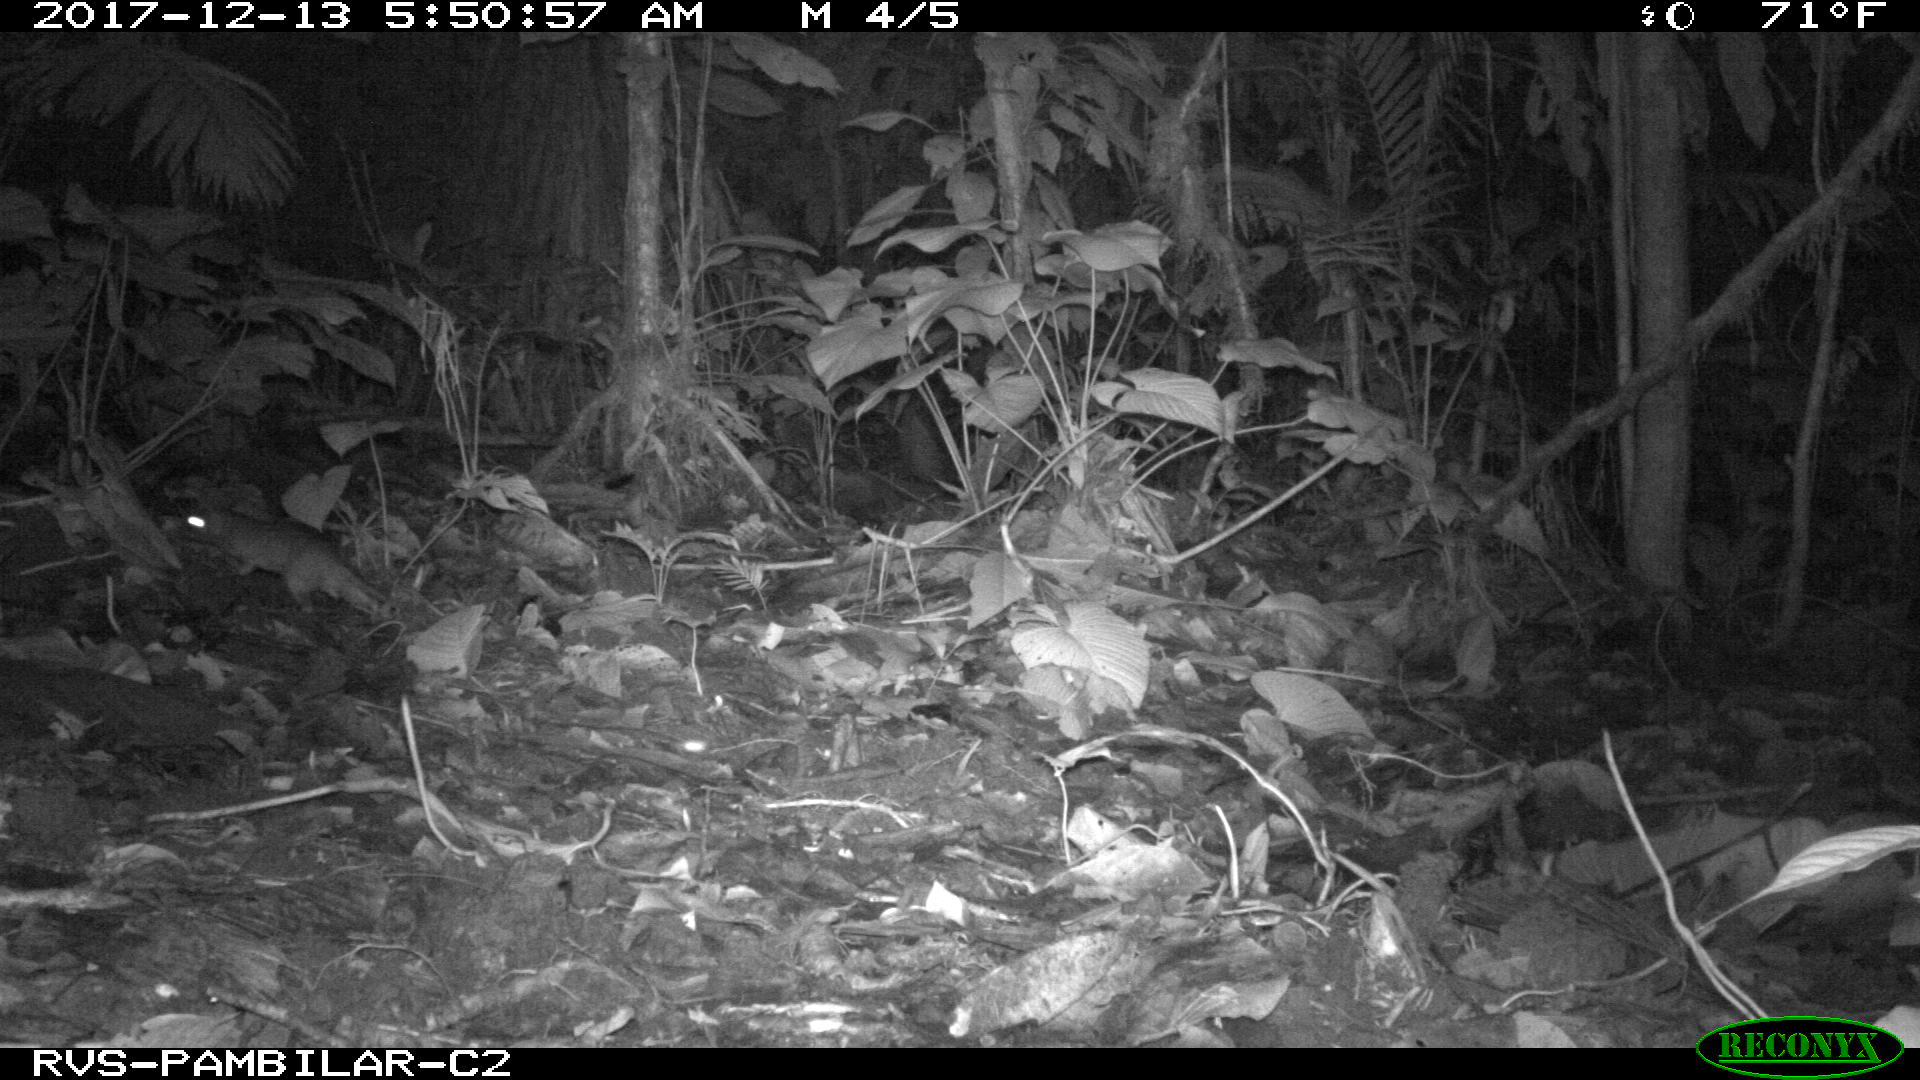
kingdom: Animalia
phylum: Chordata
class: Mammalia
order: Rodentia
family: Echimyidae
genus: Proechimys
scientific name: Proechimys
